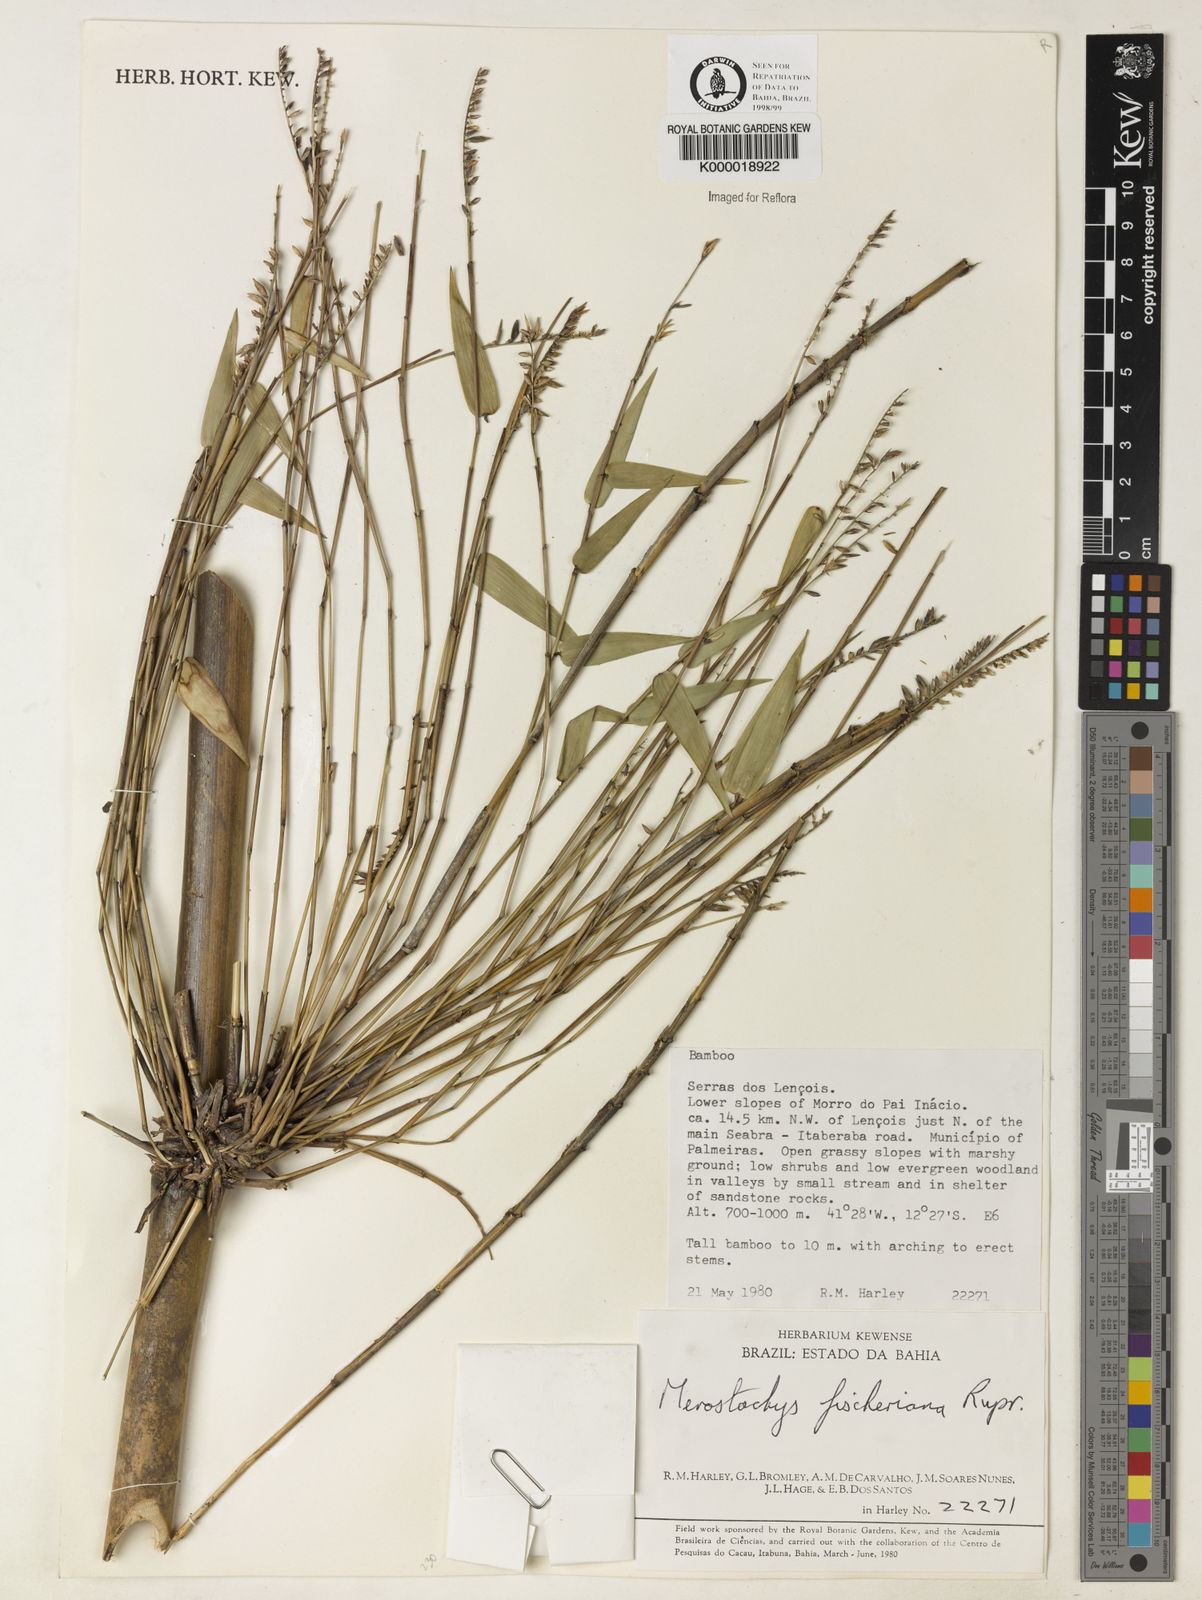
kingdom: Plantae
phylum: Tracheophyta
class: Liliopsida
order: Poales
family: Poaceae
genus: Merostachys
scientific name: Merostachys
